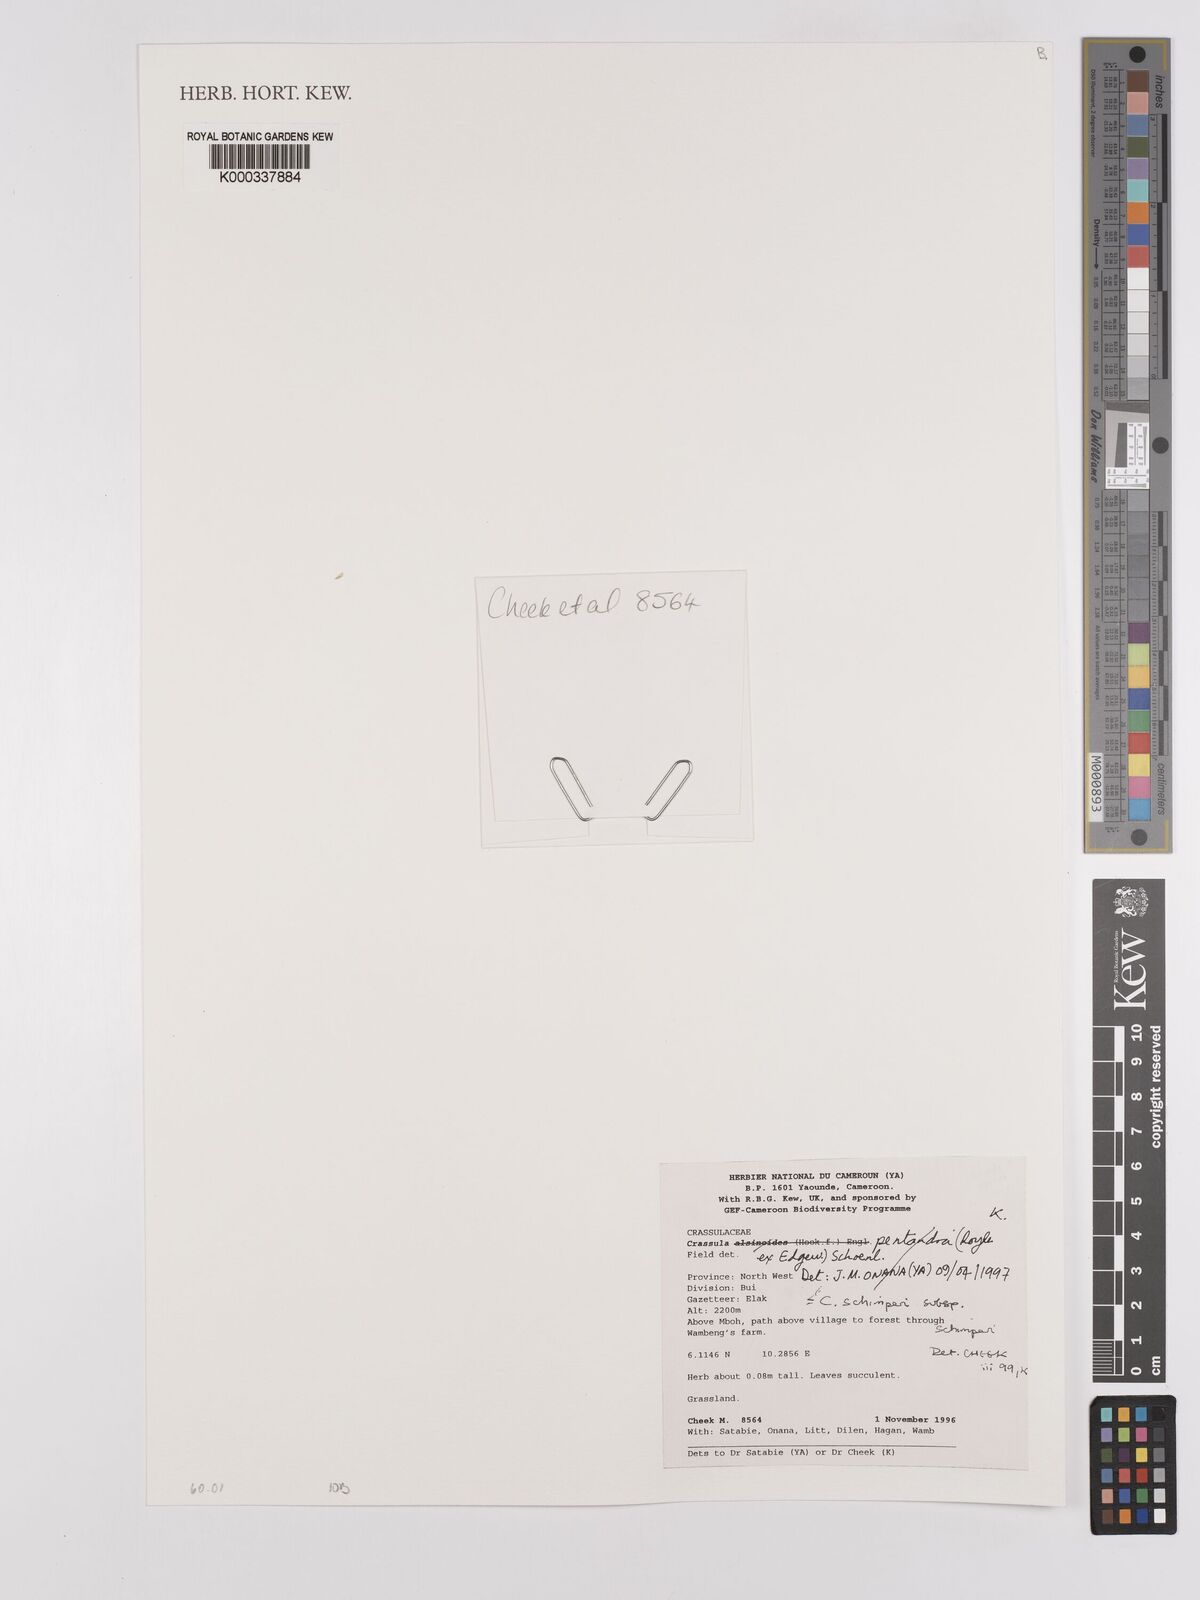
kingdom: Plantae
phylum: Tracheophyta
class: Magnoliopsida
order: Saxifragales
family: Crassulaceae
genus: Crassula
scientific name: Crassula vaginata
